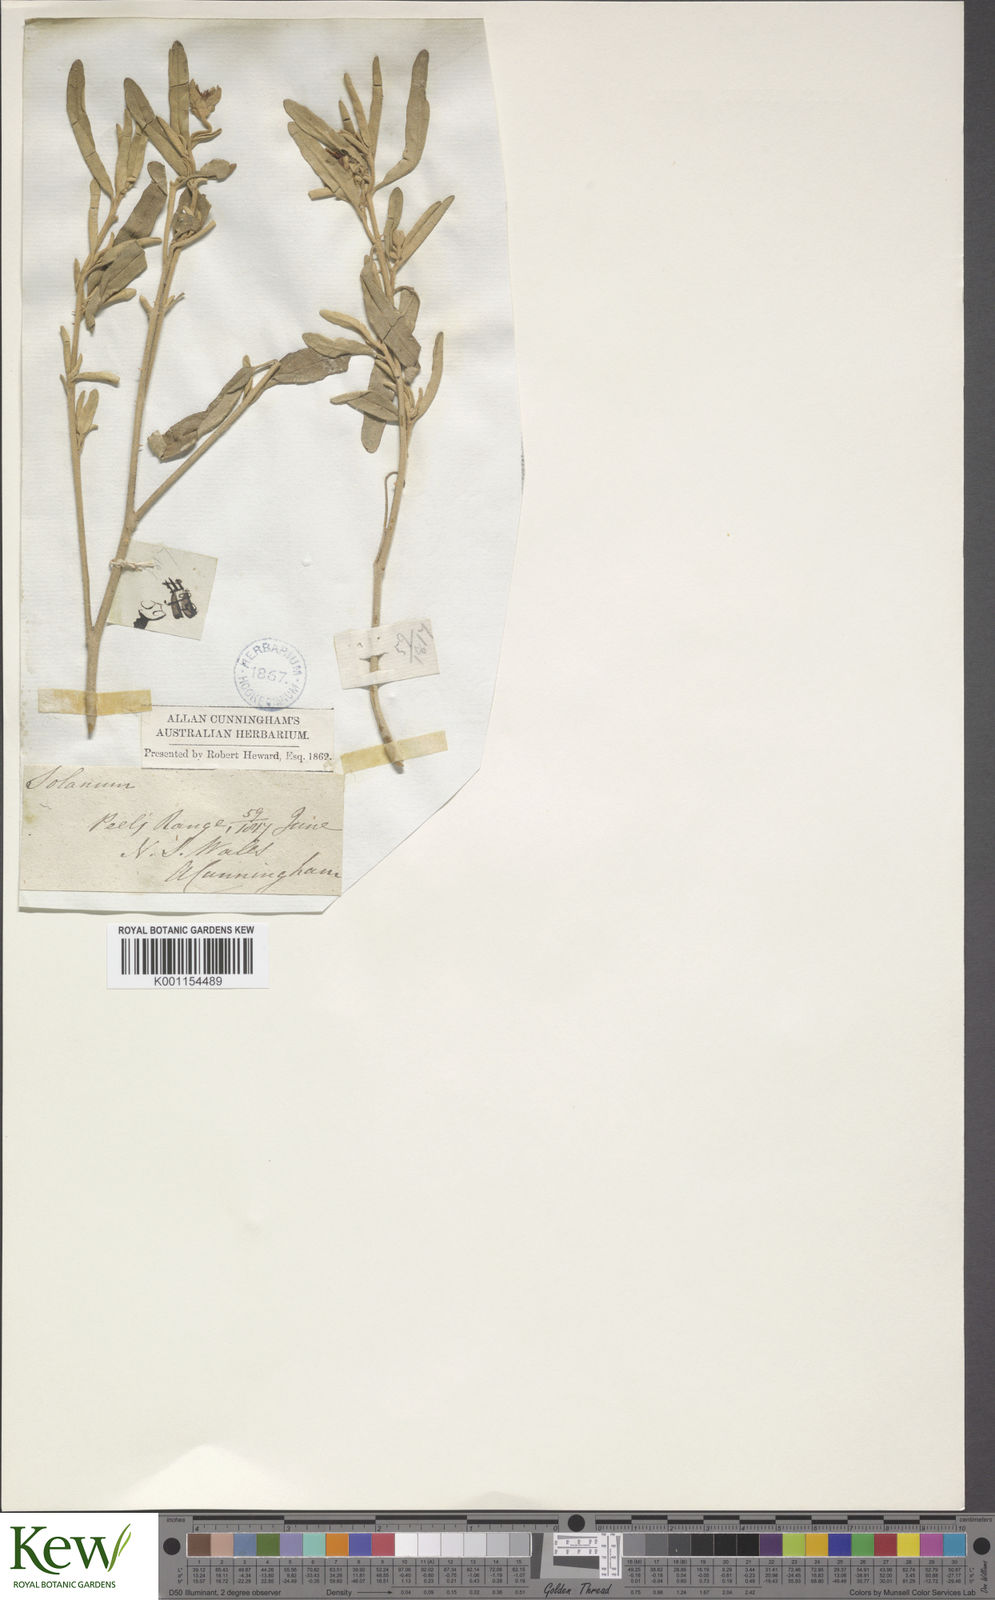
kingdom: Plantae
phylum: Tracheophyta
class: Magnoliopsida
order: Solanales
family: Solanaceae
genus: Solanum
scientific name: Solanum coactiliferum
